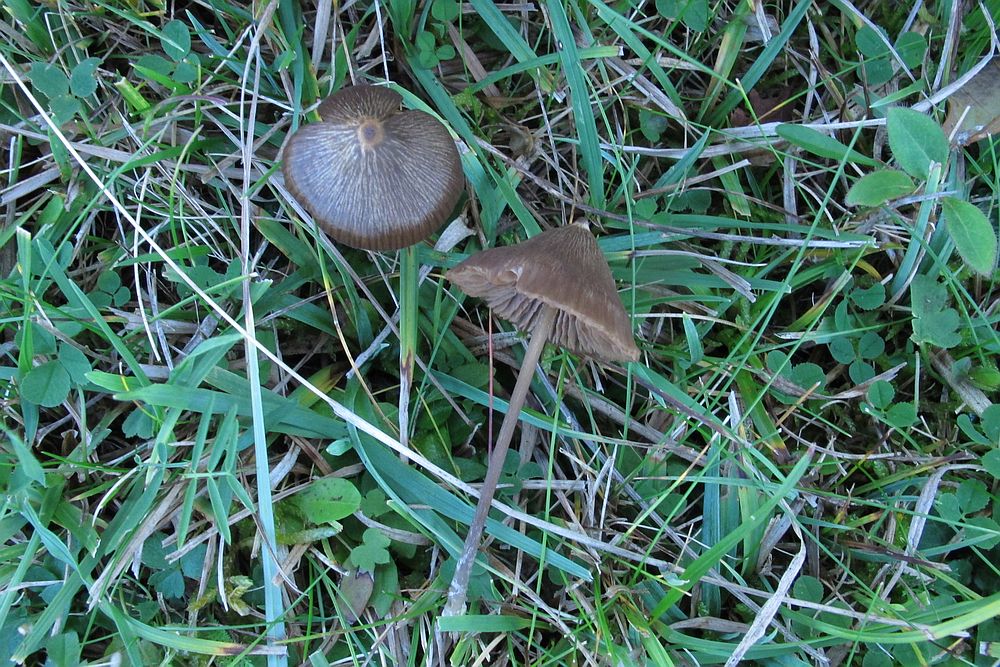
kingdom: Fungi
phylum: Basidiomycota
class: Agaricomycetes
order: Agaricales
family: Entolomataceae
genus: Entoloma
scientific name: Entoloma clandestinum
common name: tykbladet rødblad
